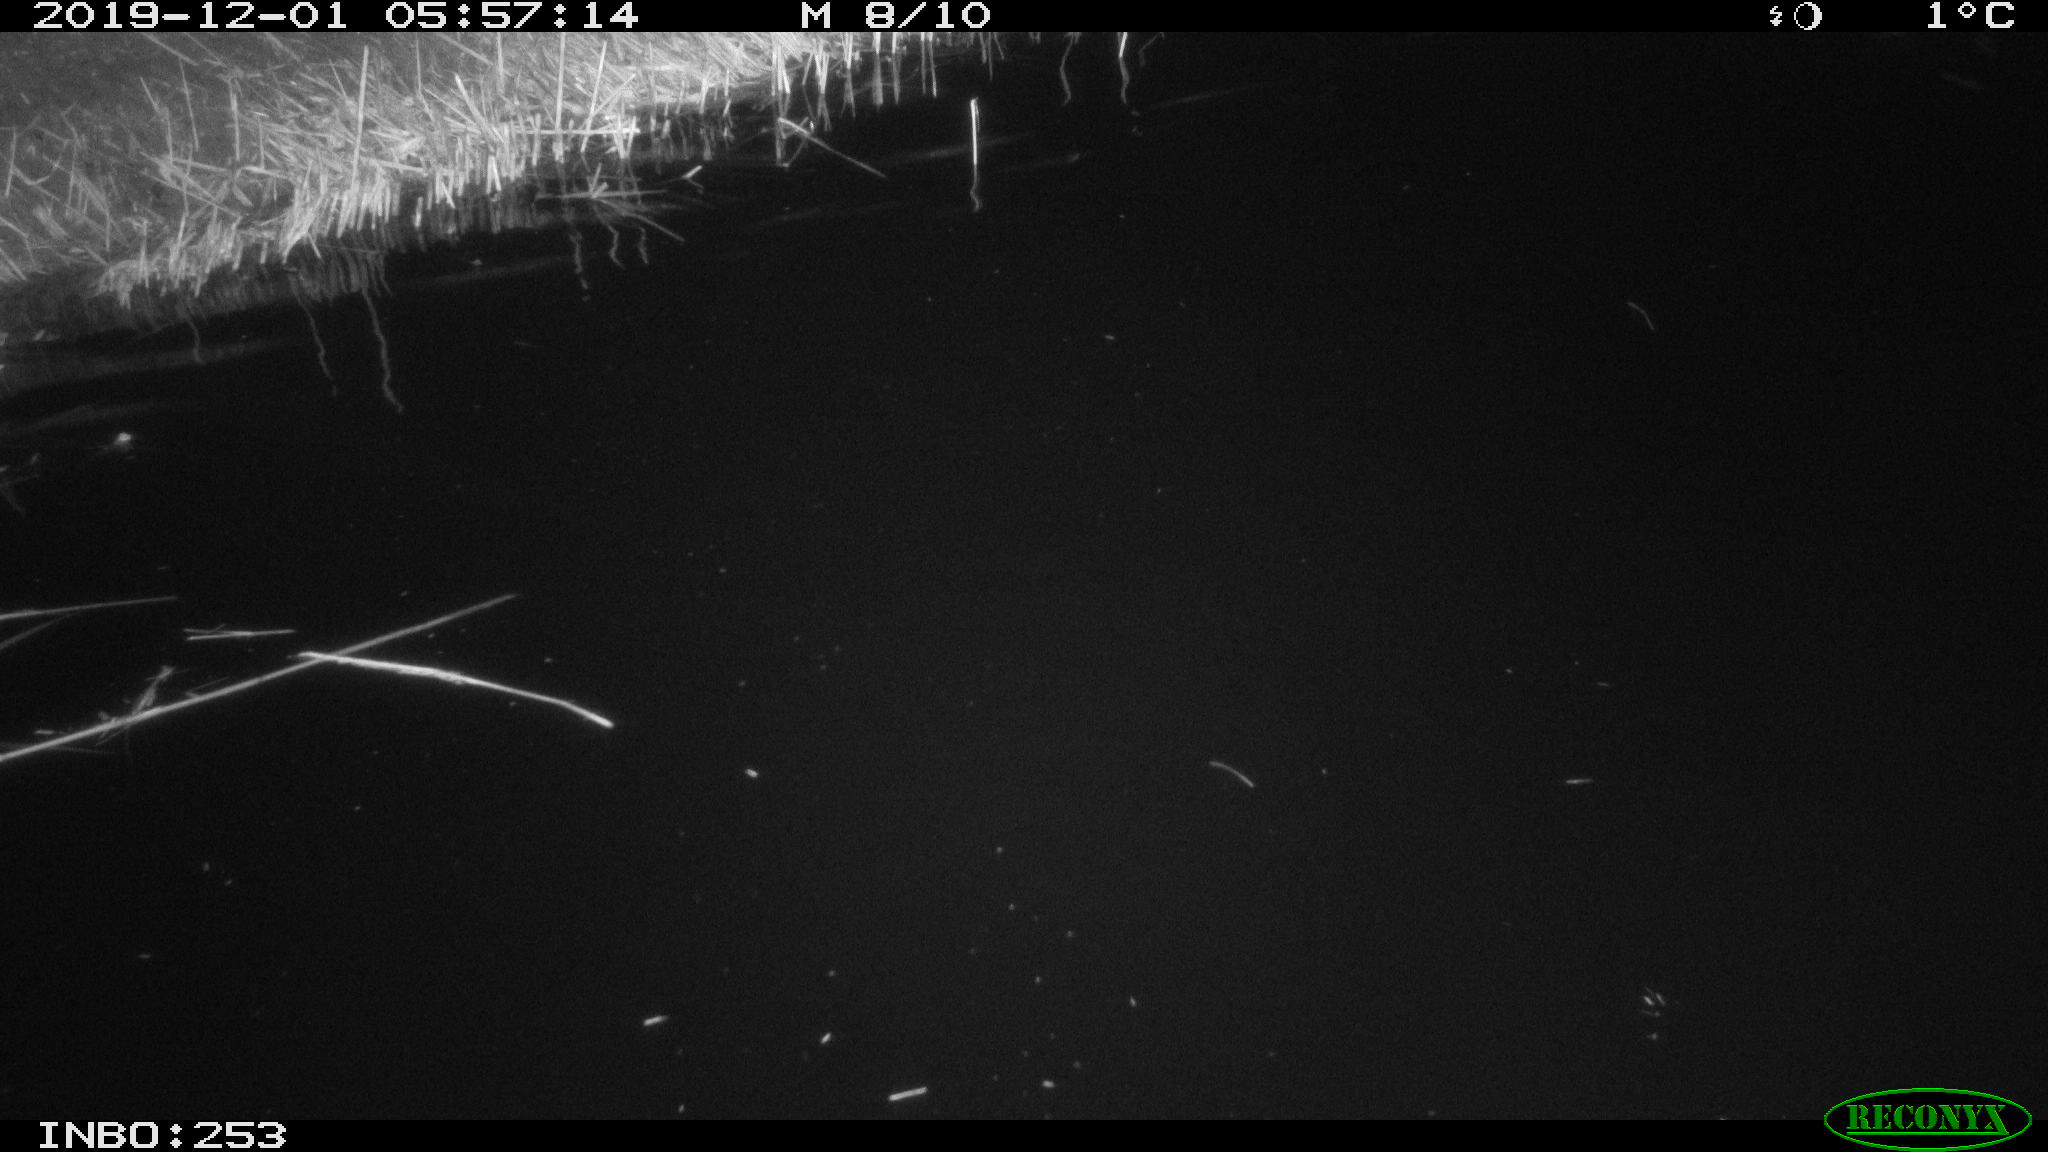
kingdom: Animalia
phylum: Chordata
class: Aves
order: Anseriformes
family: Anatidae
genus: Anser
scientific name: Anser anser
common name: Greylag goose
